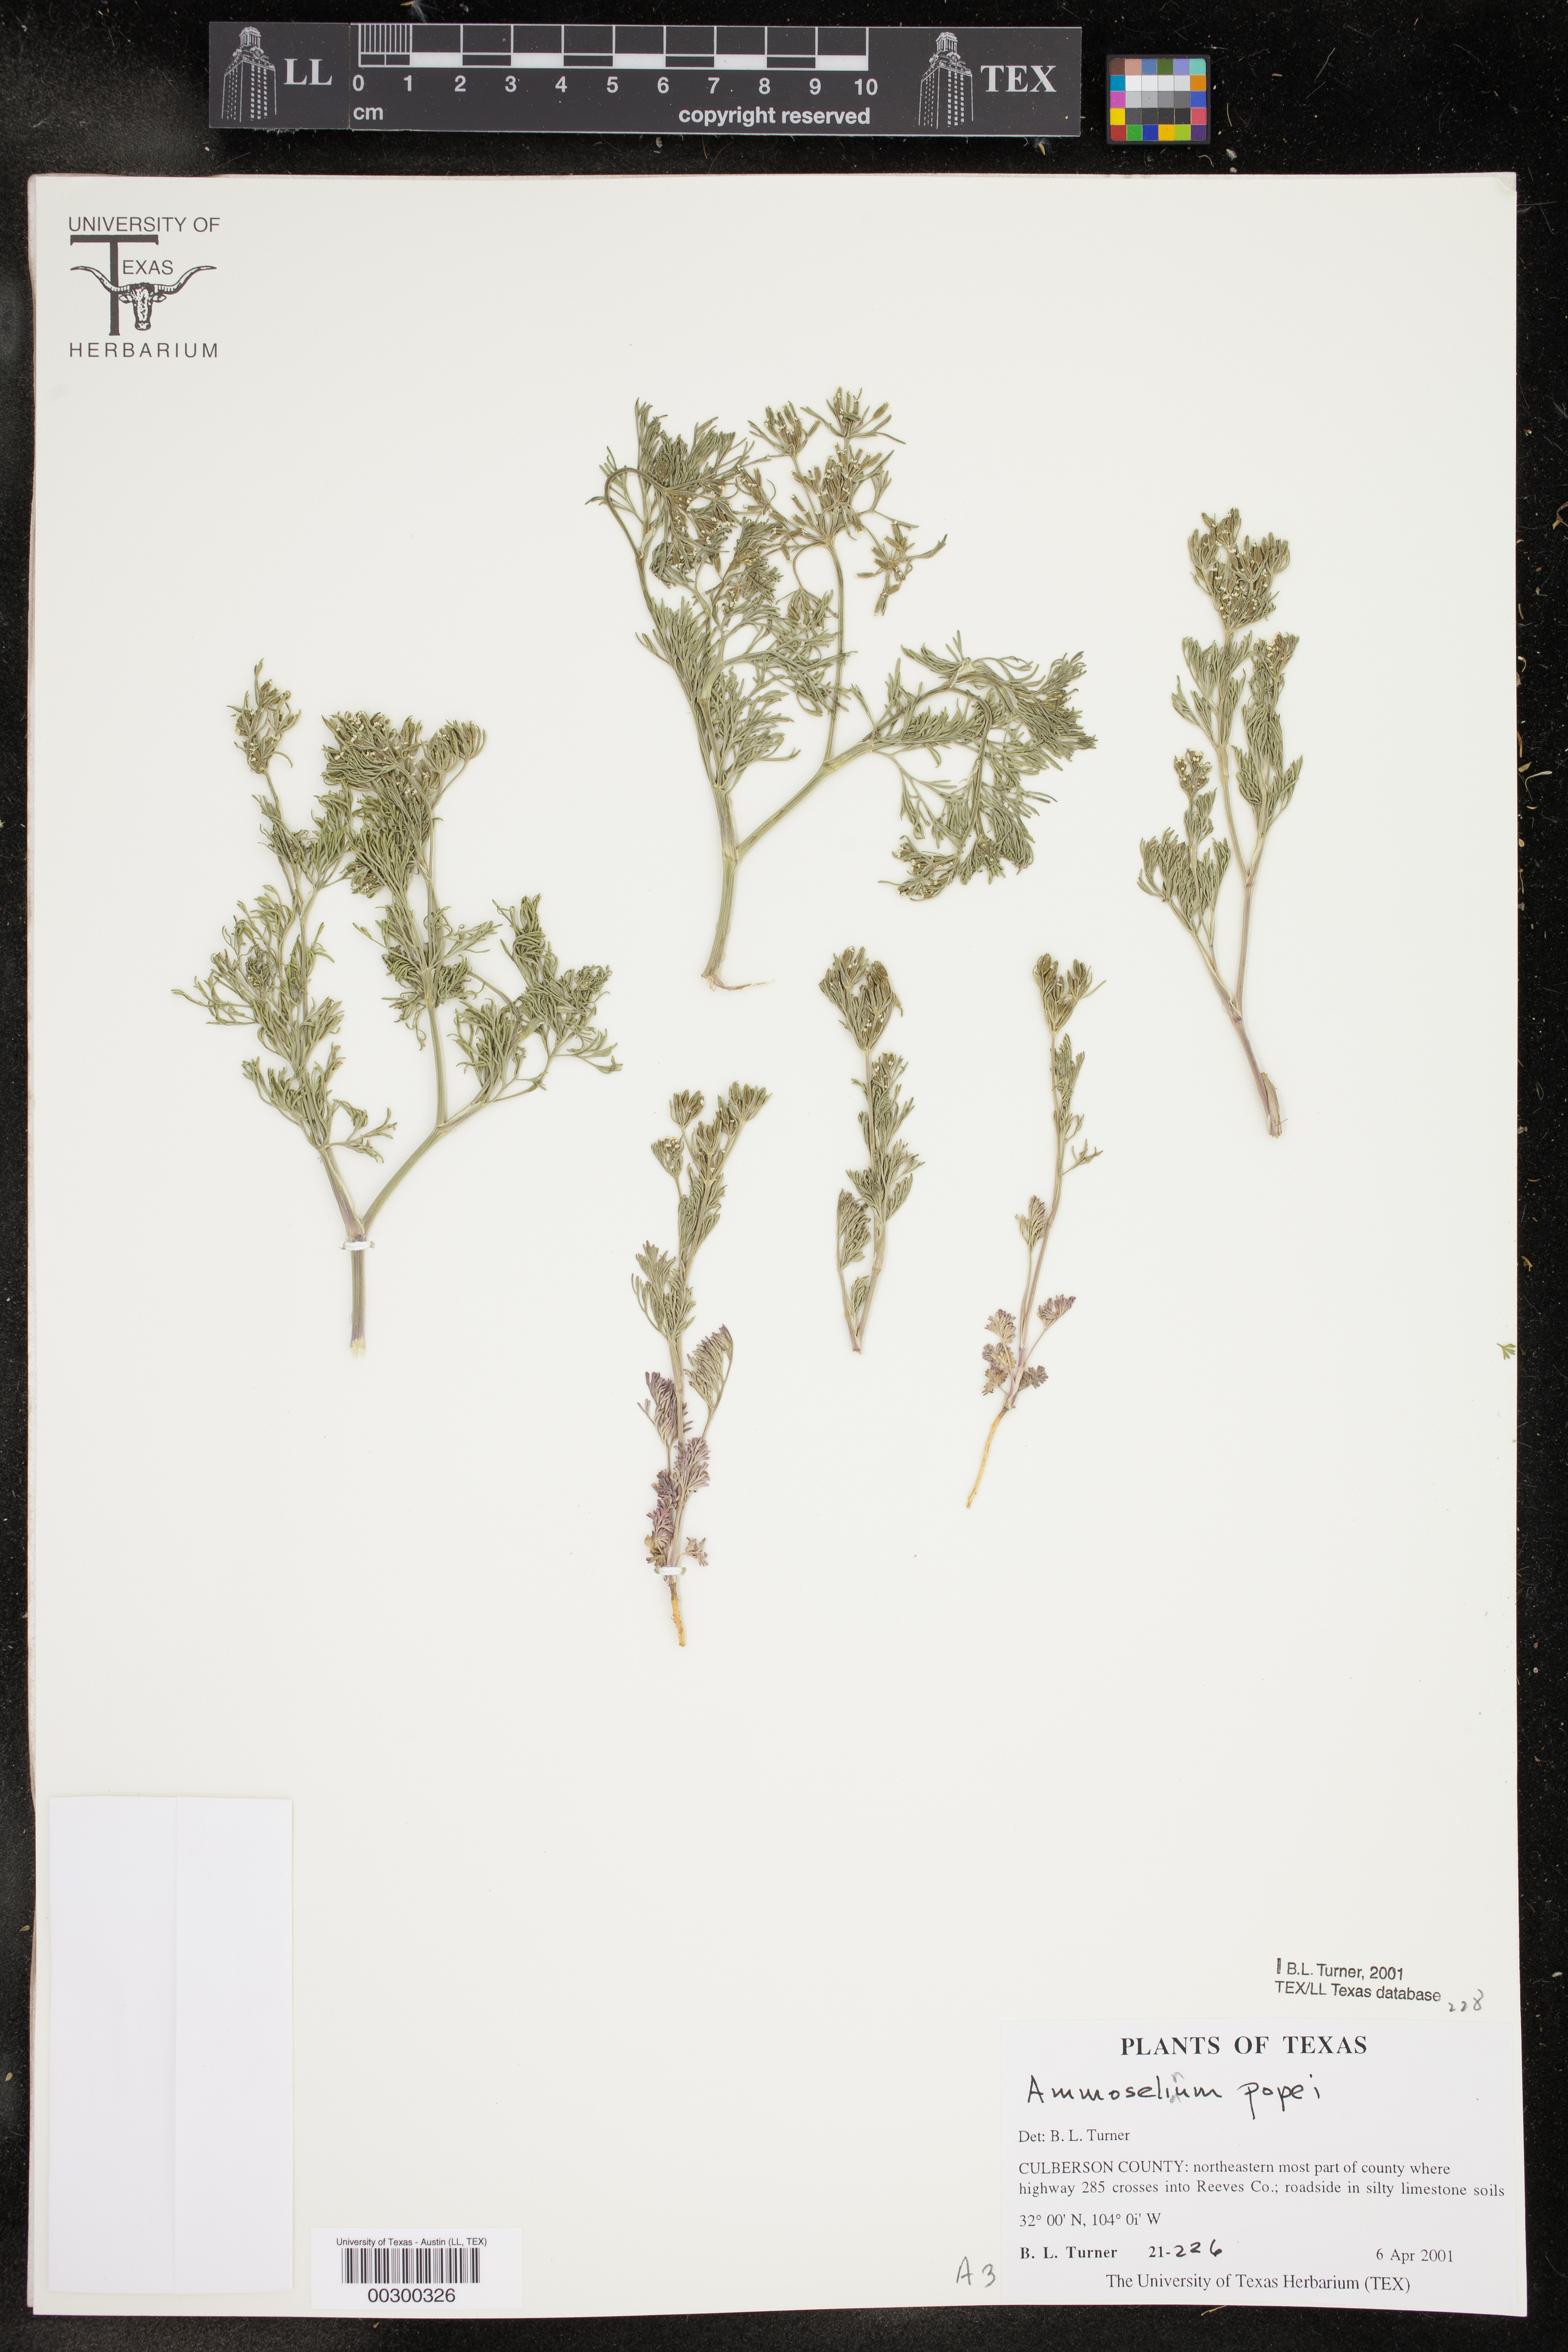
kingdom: Plantae
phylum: Tracheophyta
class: Magnoliopsida
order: Apiales
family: Apiaceae
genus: Ammoselinum
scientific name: Ammoselinum popei
